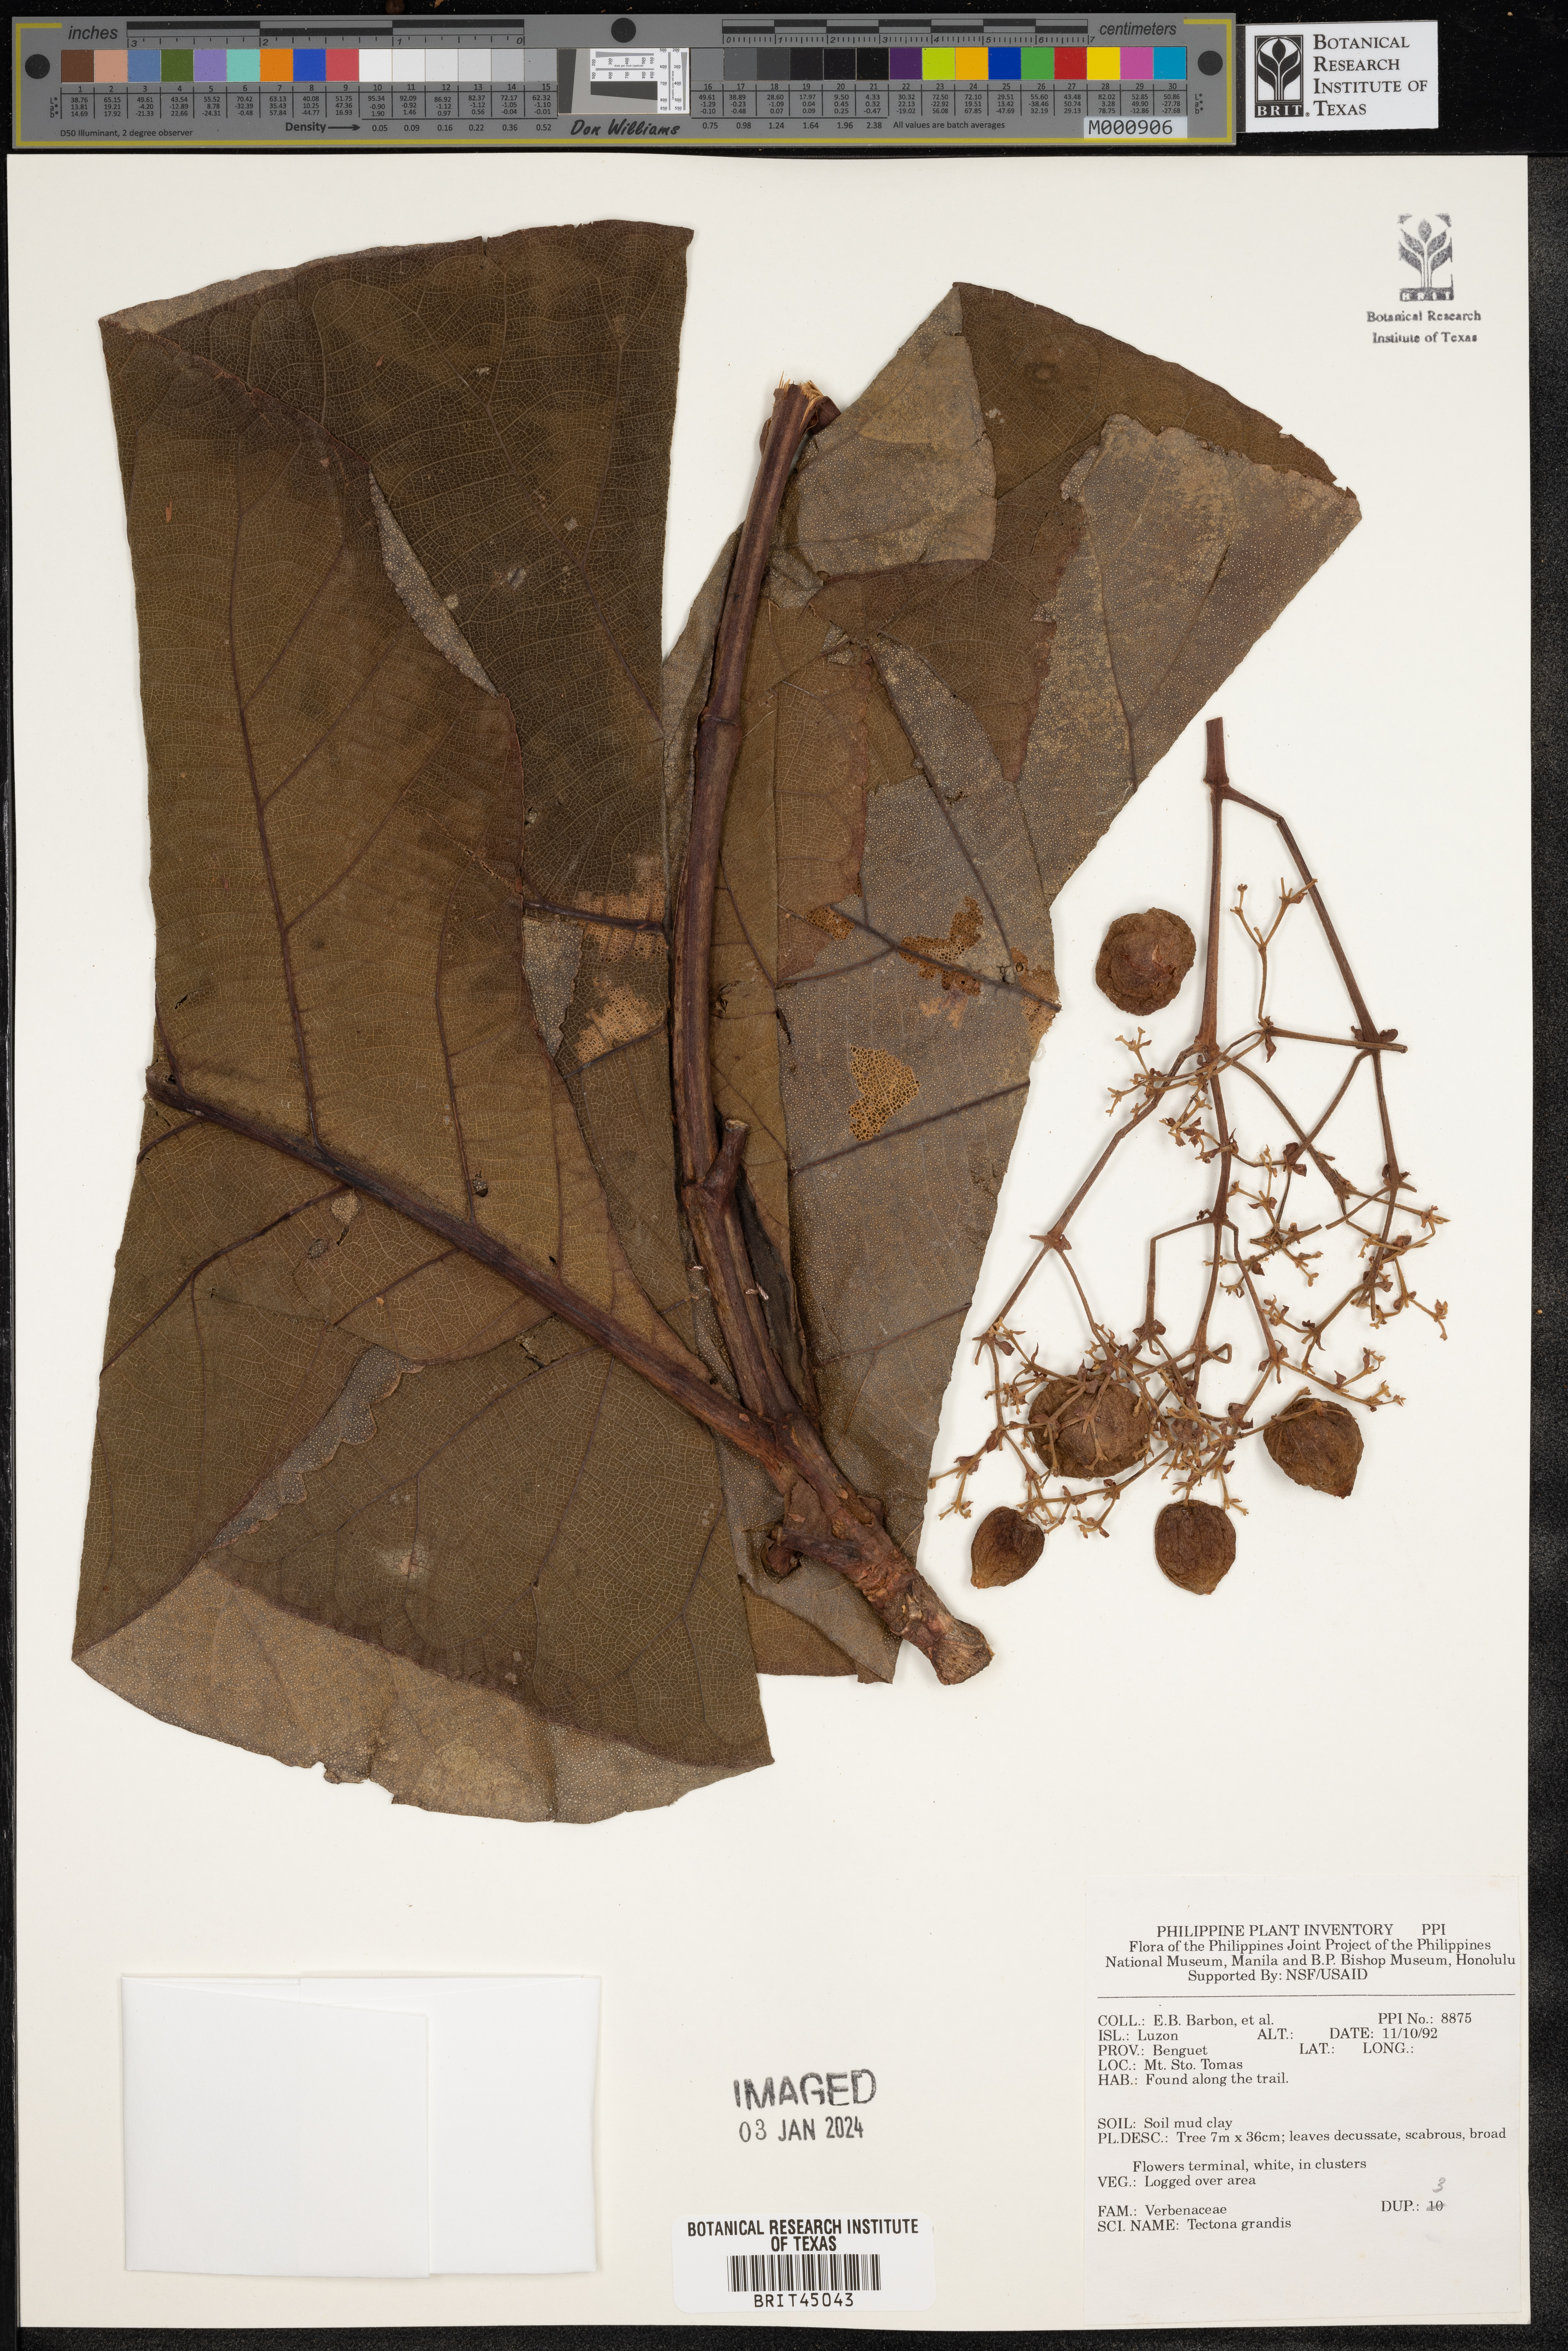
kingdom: Plantae
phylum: Tracheophyta
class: Magnoliopsida
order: Lamiales
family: Lamiaceae
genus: Tectona
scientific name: Tectona grandis
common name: Teak
